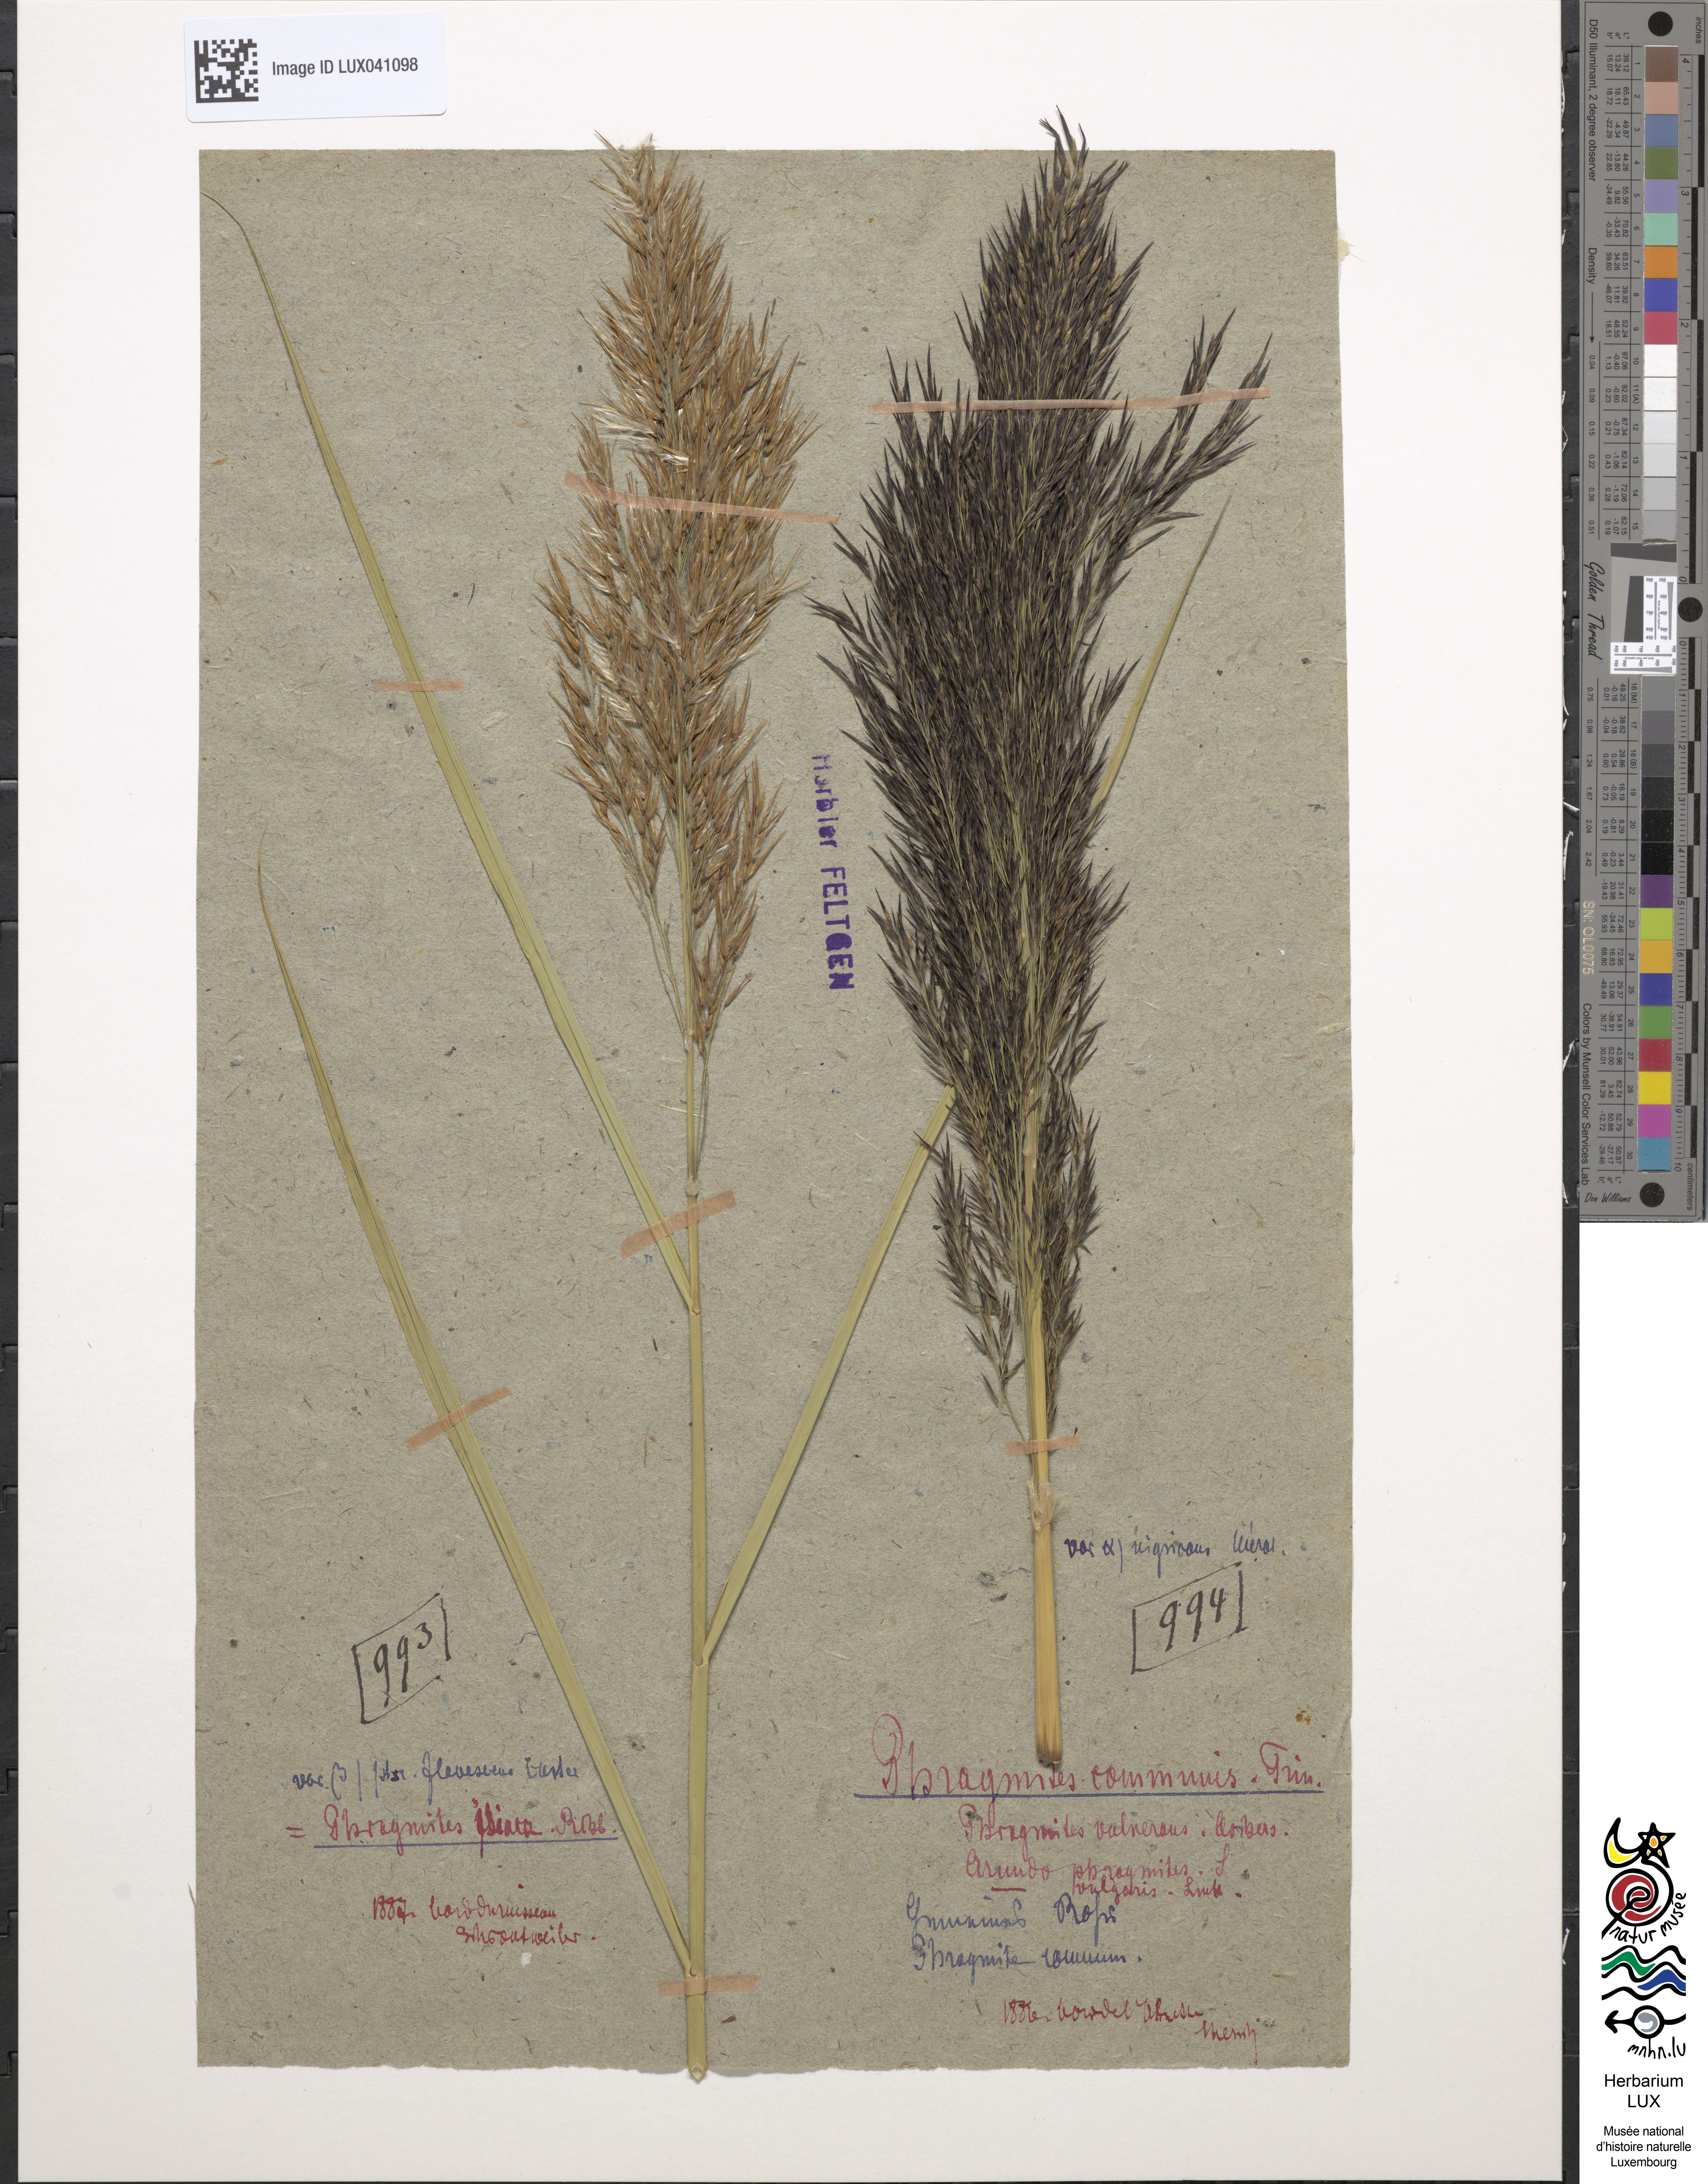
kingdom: Plantae
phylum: Tracheophyta
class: Liliopsida
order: Poales
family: Poaceae
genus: Phragmites
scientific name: Phragmites australis
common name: Common reed
